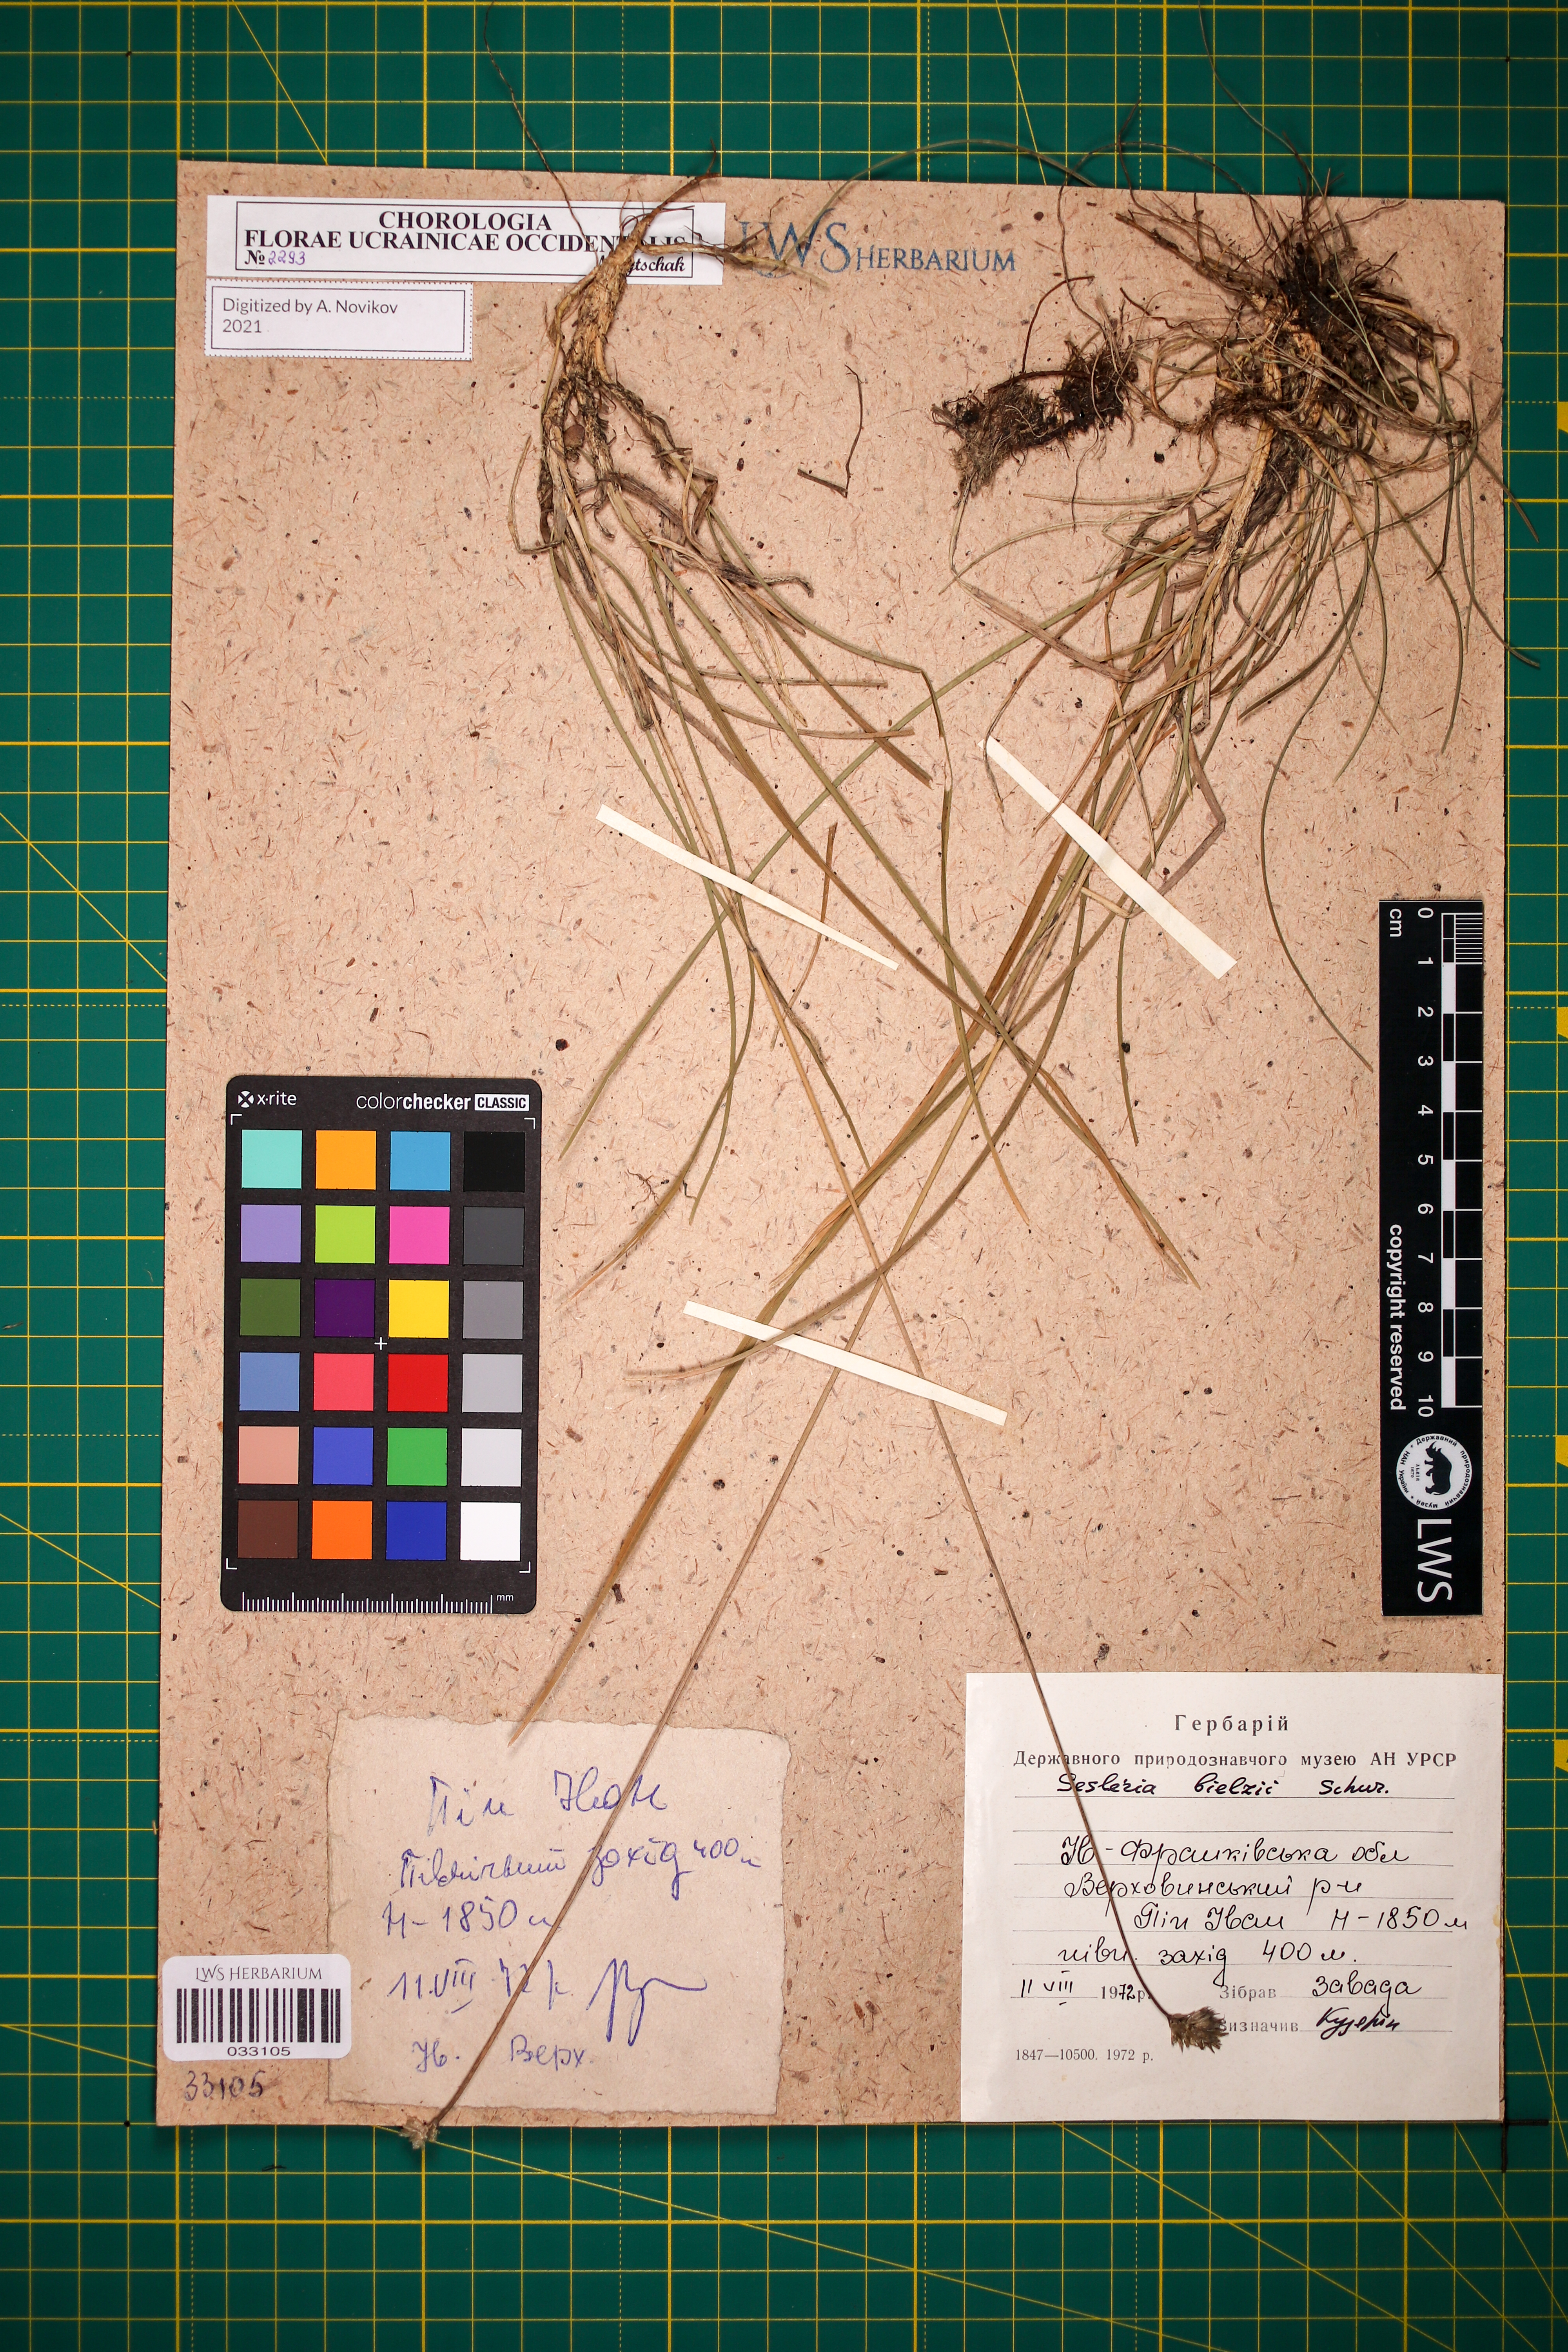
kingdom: Plantae
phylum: Tracheophyta
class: Liliopsida
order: Poales
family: Poaceae
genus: Sesleria
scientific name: Sesleria bielzii
